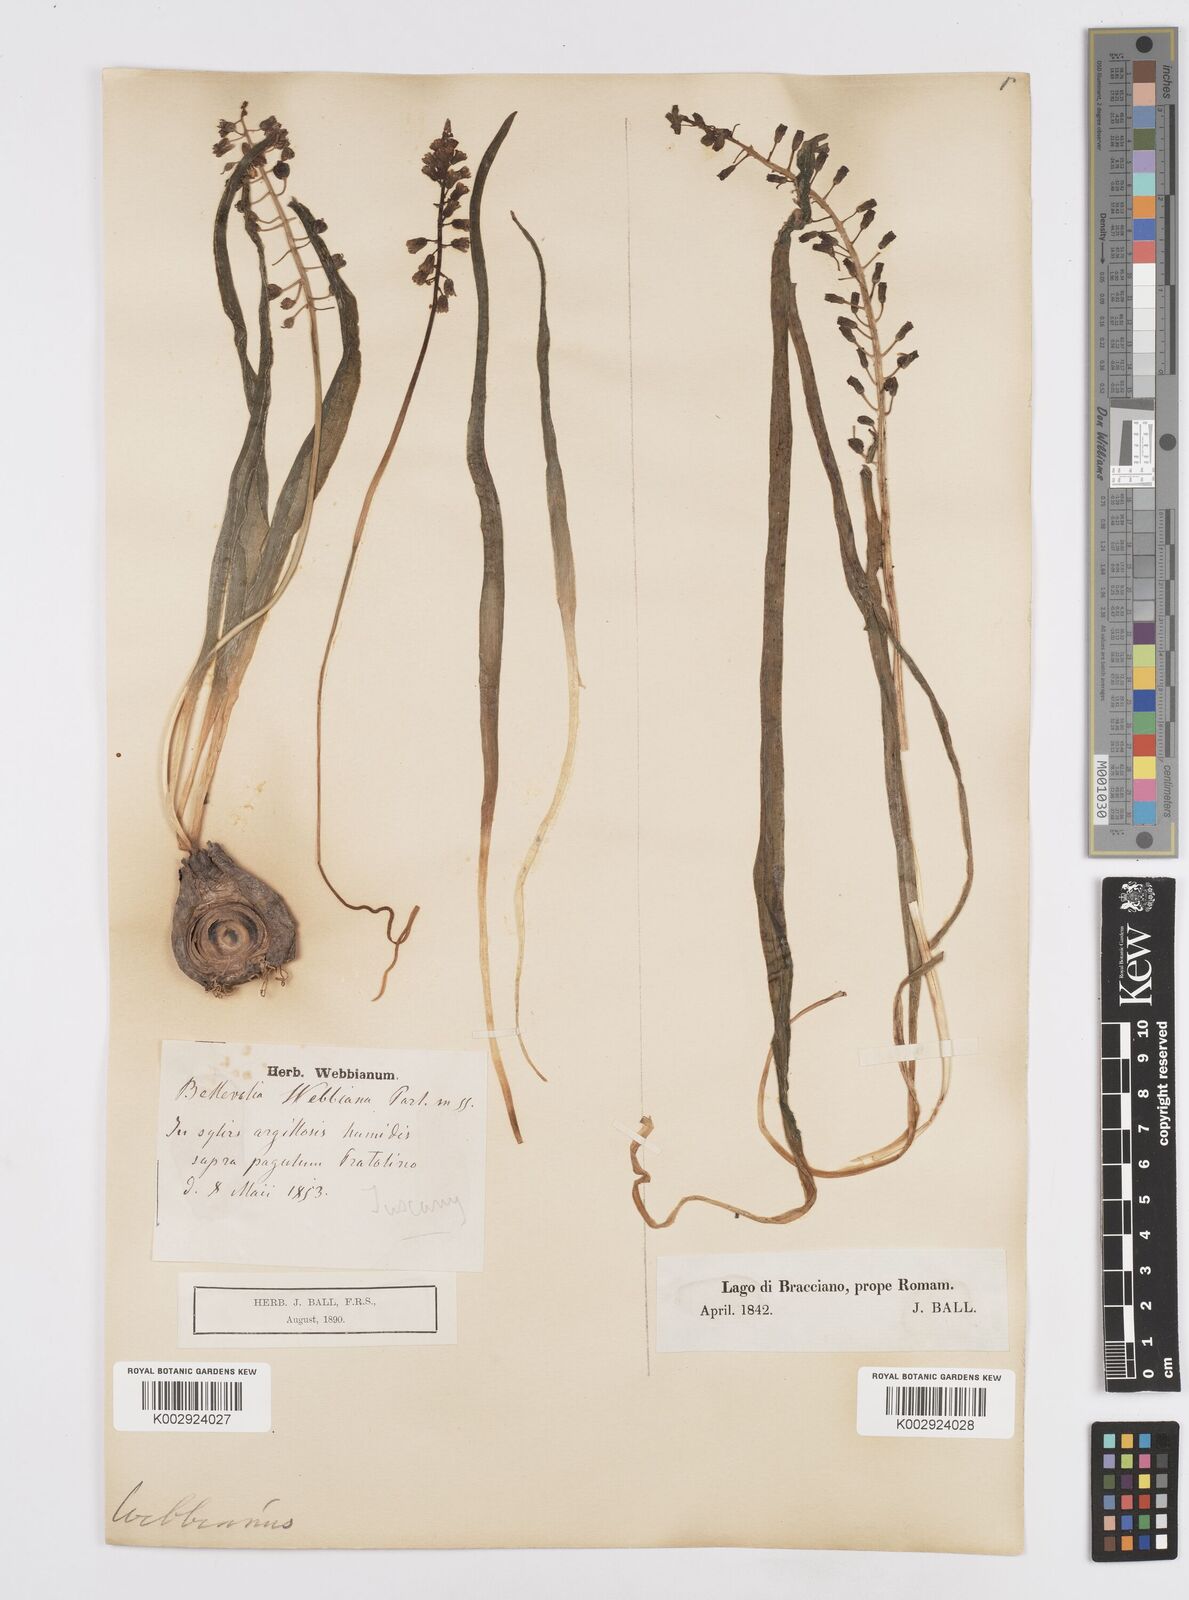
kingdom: Plantae
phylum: Tracheophyta
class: Liliopsida
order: Asparagales
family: Asparagaceae
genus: Bellevalia
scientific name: Bellevalia dubia
